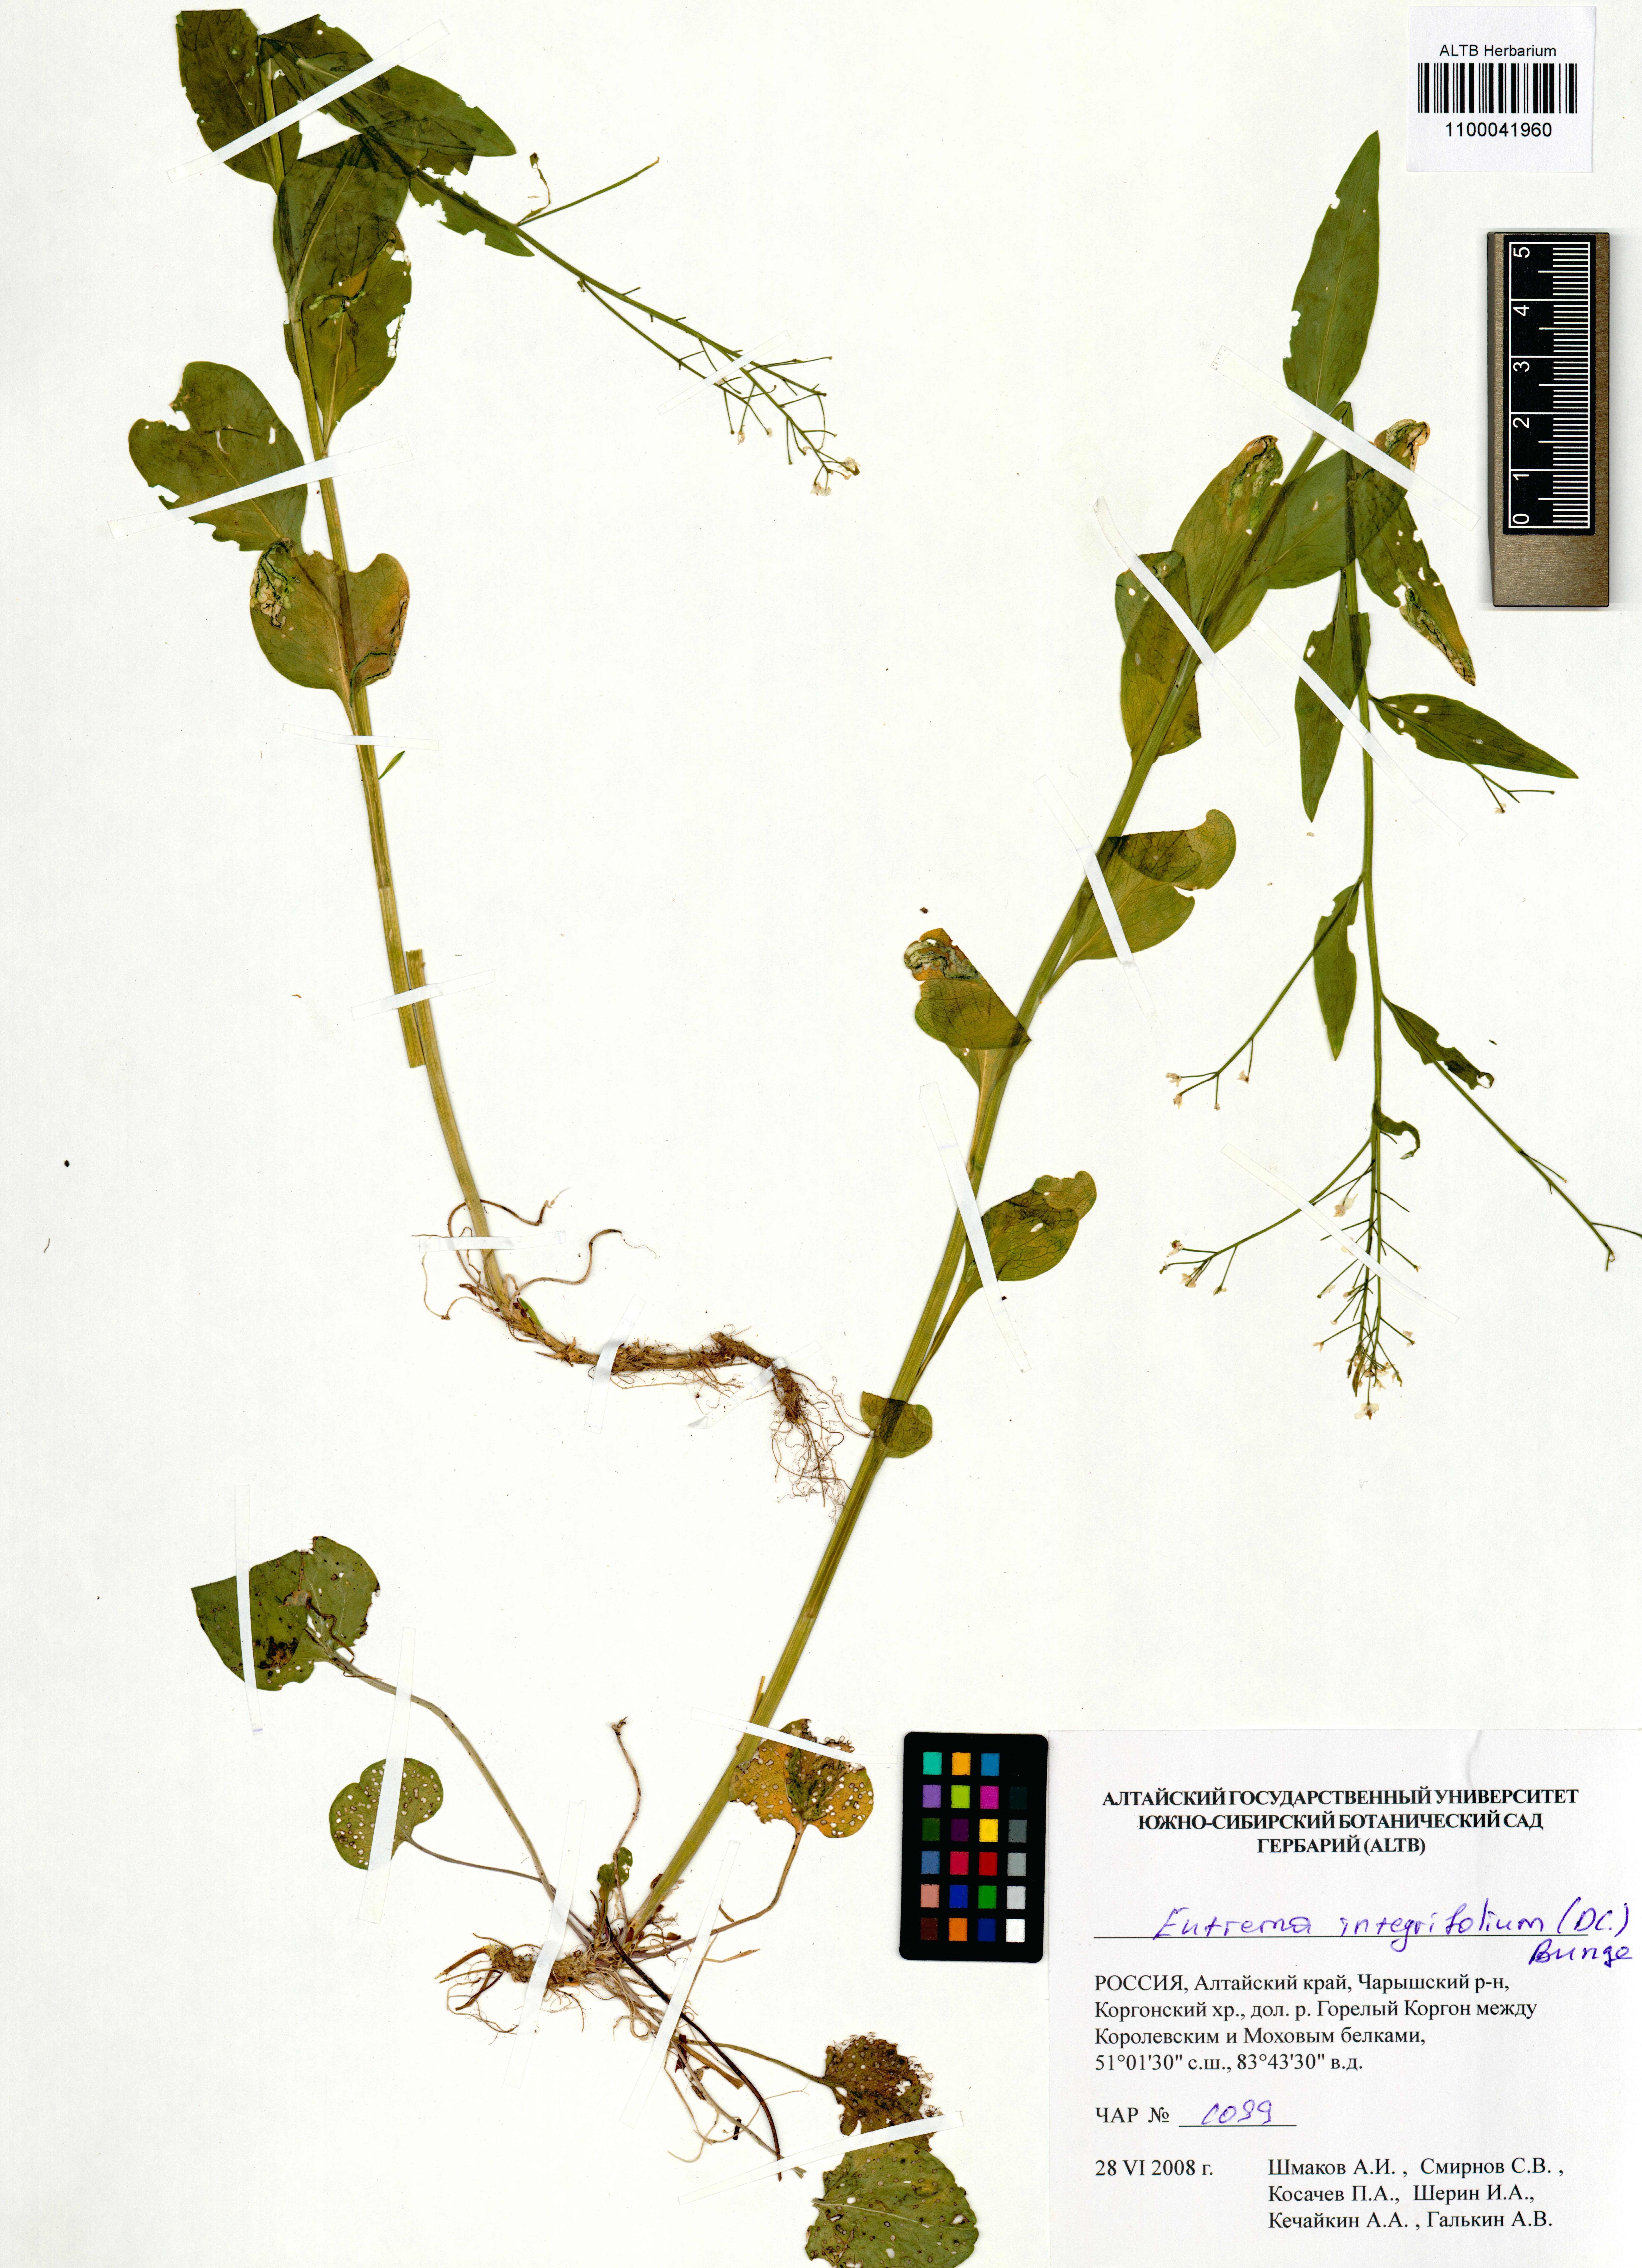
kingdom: Plantae
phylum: Tracheophyta
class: Magnoliopsida
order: Brassicales
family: Brassicaceae
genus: Eutrema
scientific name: Eutrema integrifolium
